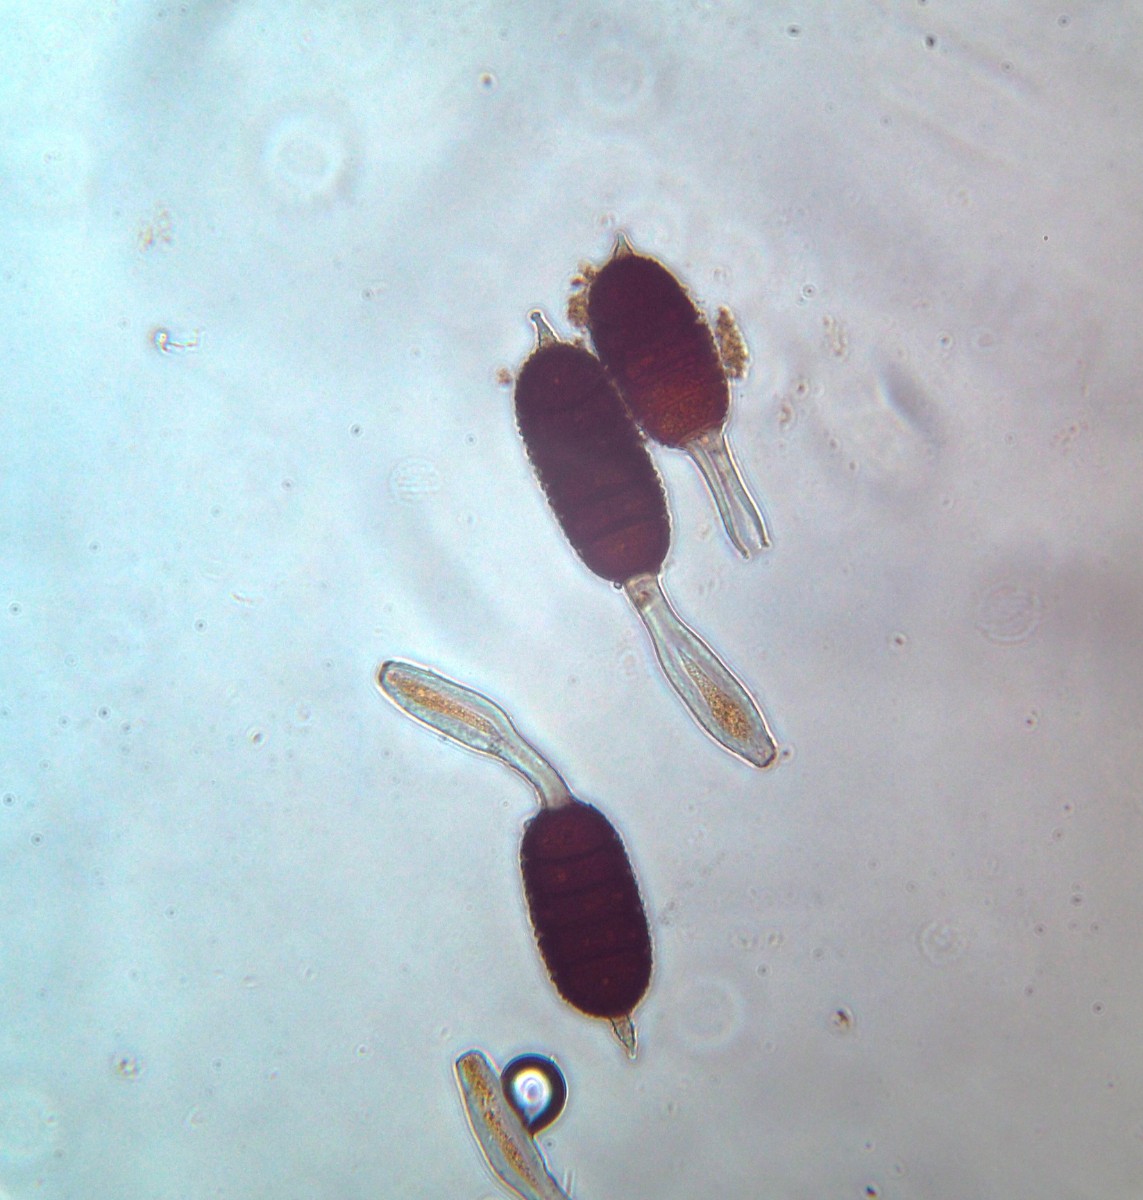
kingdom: Fungi
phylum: Basidiomycota
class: Pucciniomycetes
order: Pucciniales
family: Phragmidiaceae
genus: Phragmidium
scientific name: Phragmidium tuberculatum
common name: Rose rust
